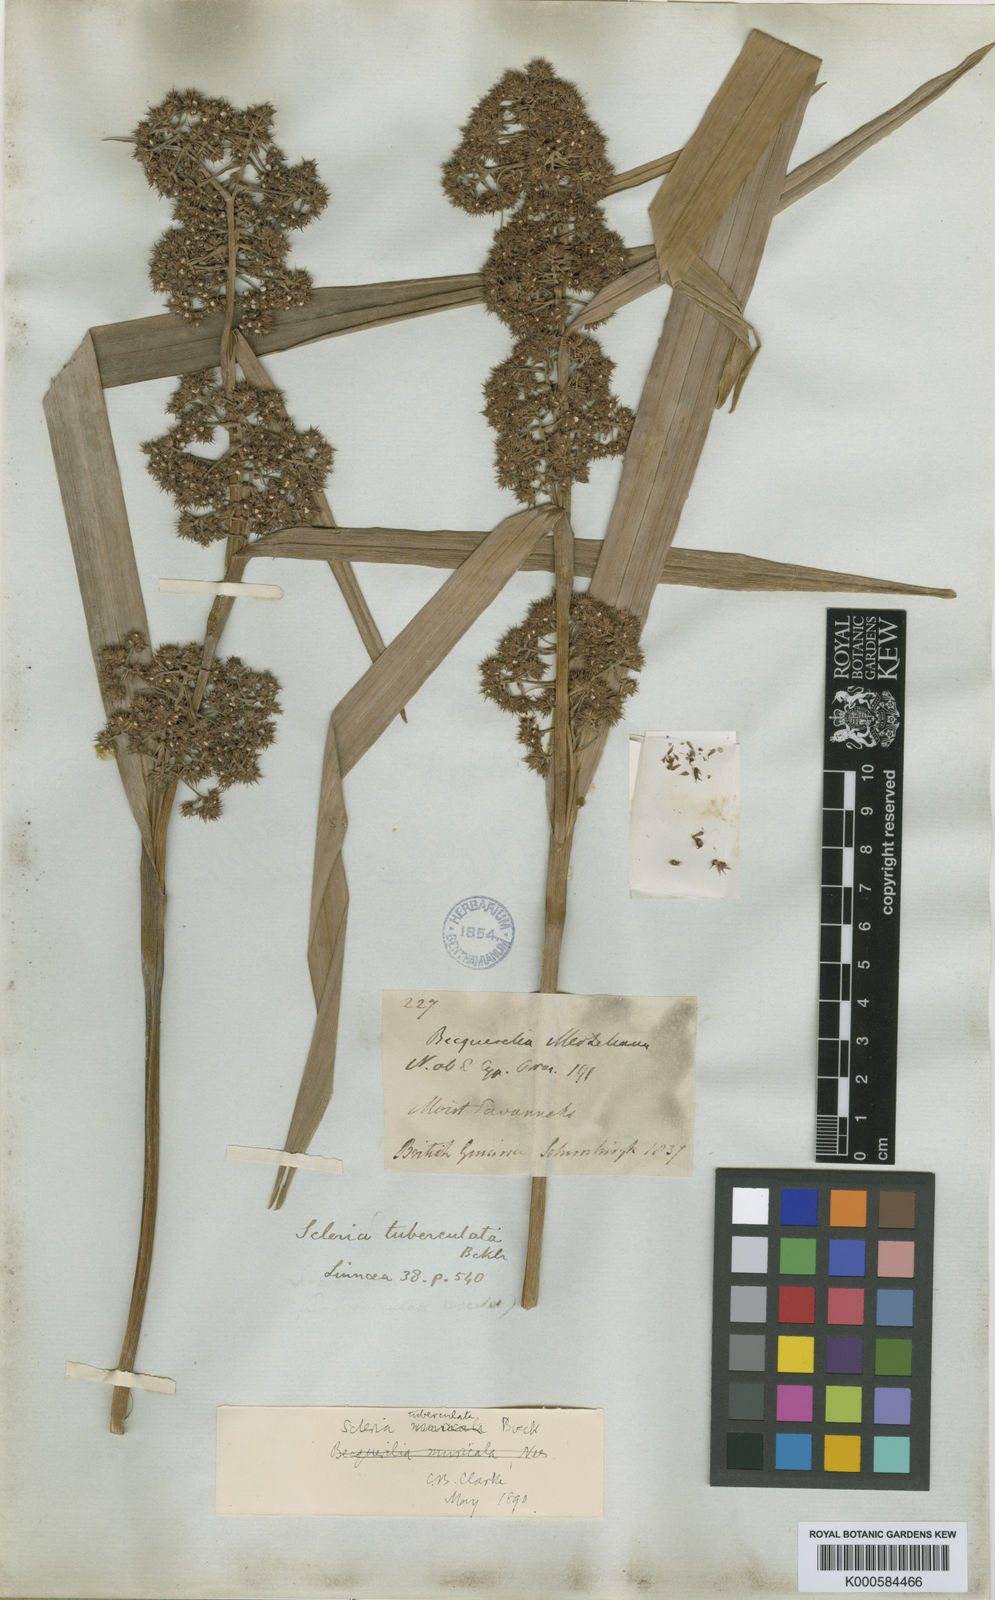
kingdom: Plantae
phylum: Tracheophyta
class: Liliopsida
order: Poales
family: Cyperaceae
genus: Becquerelia
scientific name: Becquerelia tuberculata
